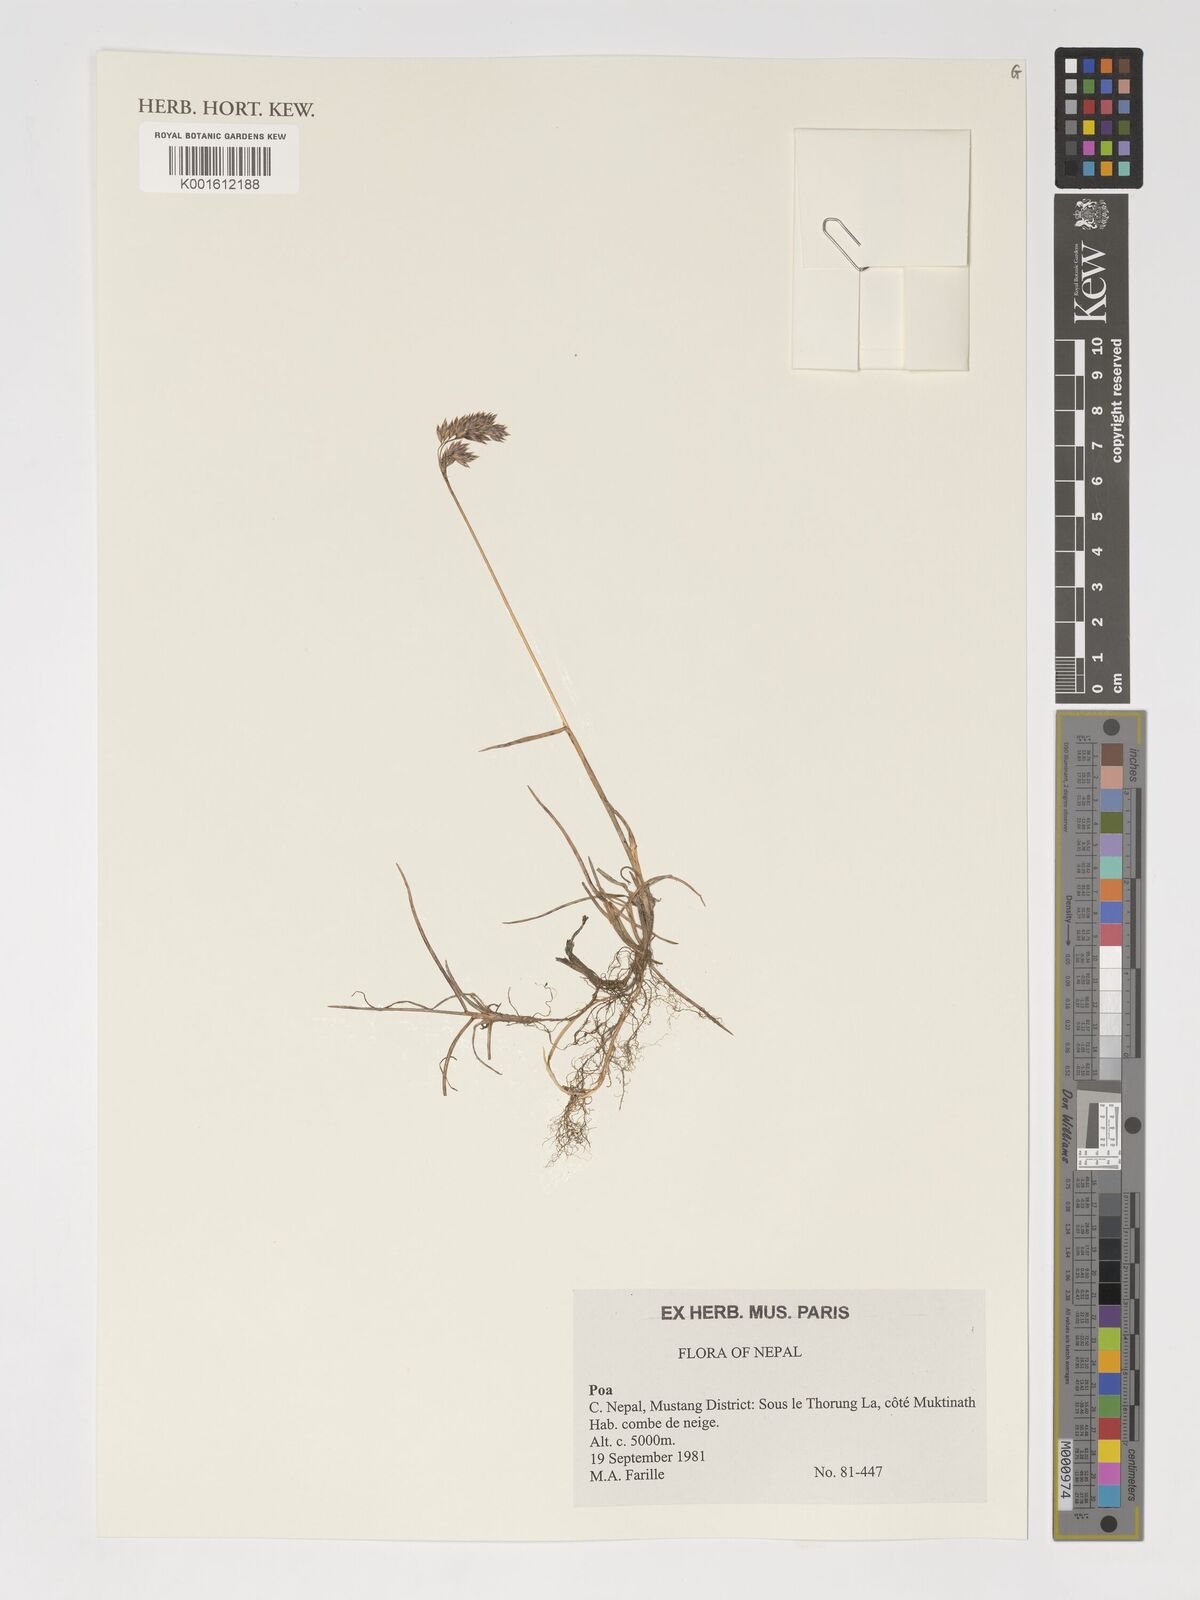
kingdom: Plantae
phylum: Tracheophyta
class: Liliopsida
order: Poales
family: Poaceae
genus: Poa
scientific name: Poa
